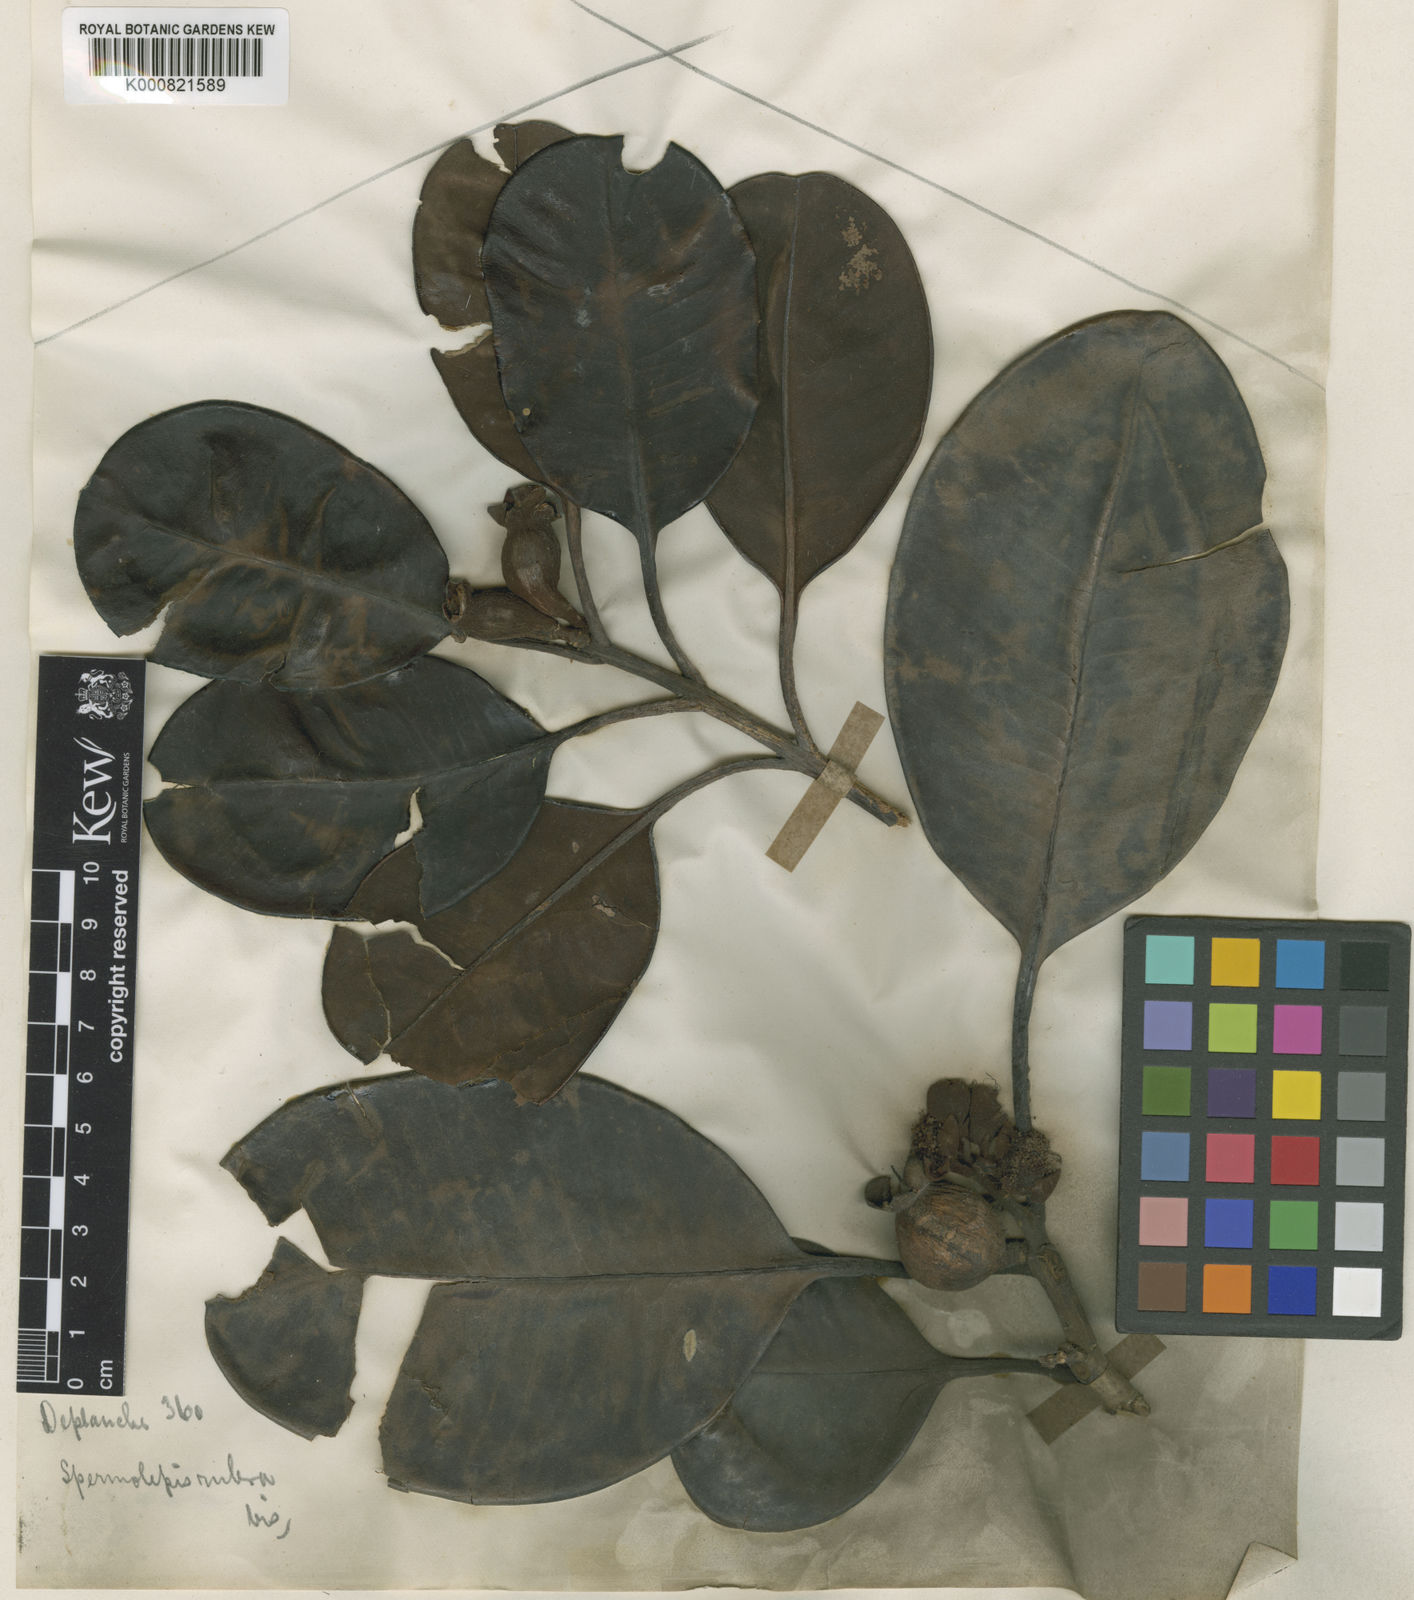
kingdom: Plantae
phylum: Tracheophyta
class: Magnoliopsida
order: Myrtales
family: Myrtaceae
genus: Stereocaryum
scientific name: Stereocaryum ovigerum
